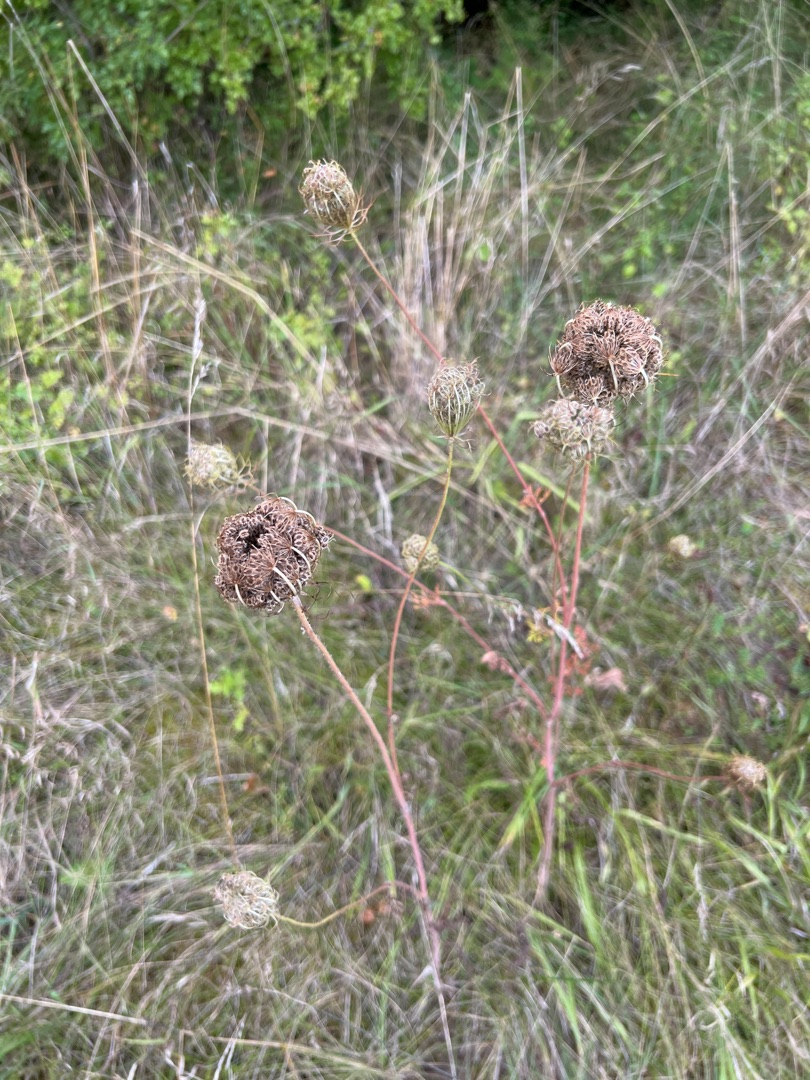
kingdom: Plantae
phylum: Tracheophyta
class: Magnoliopsida
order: Apiales
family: Apiaceae
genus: Daucus
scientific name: Daucus carota
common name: Gulerod
